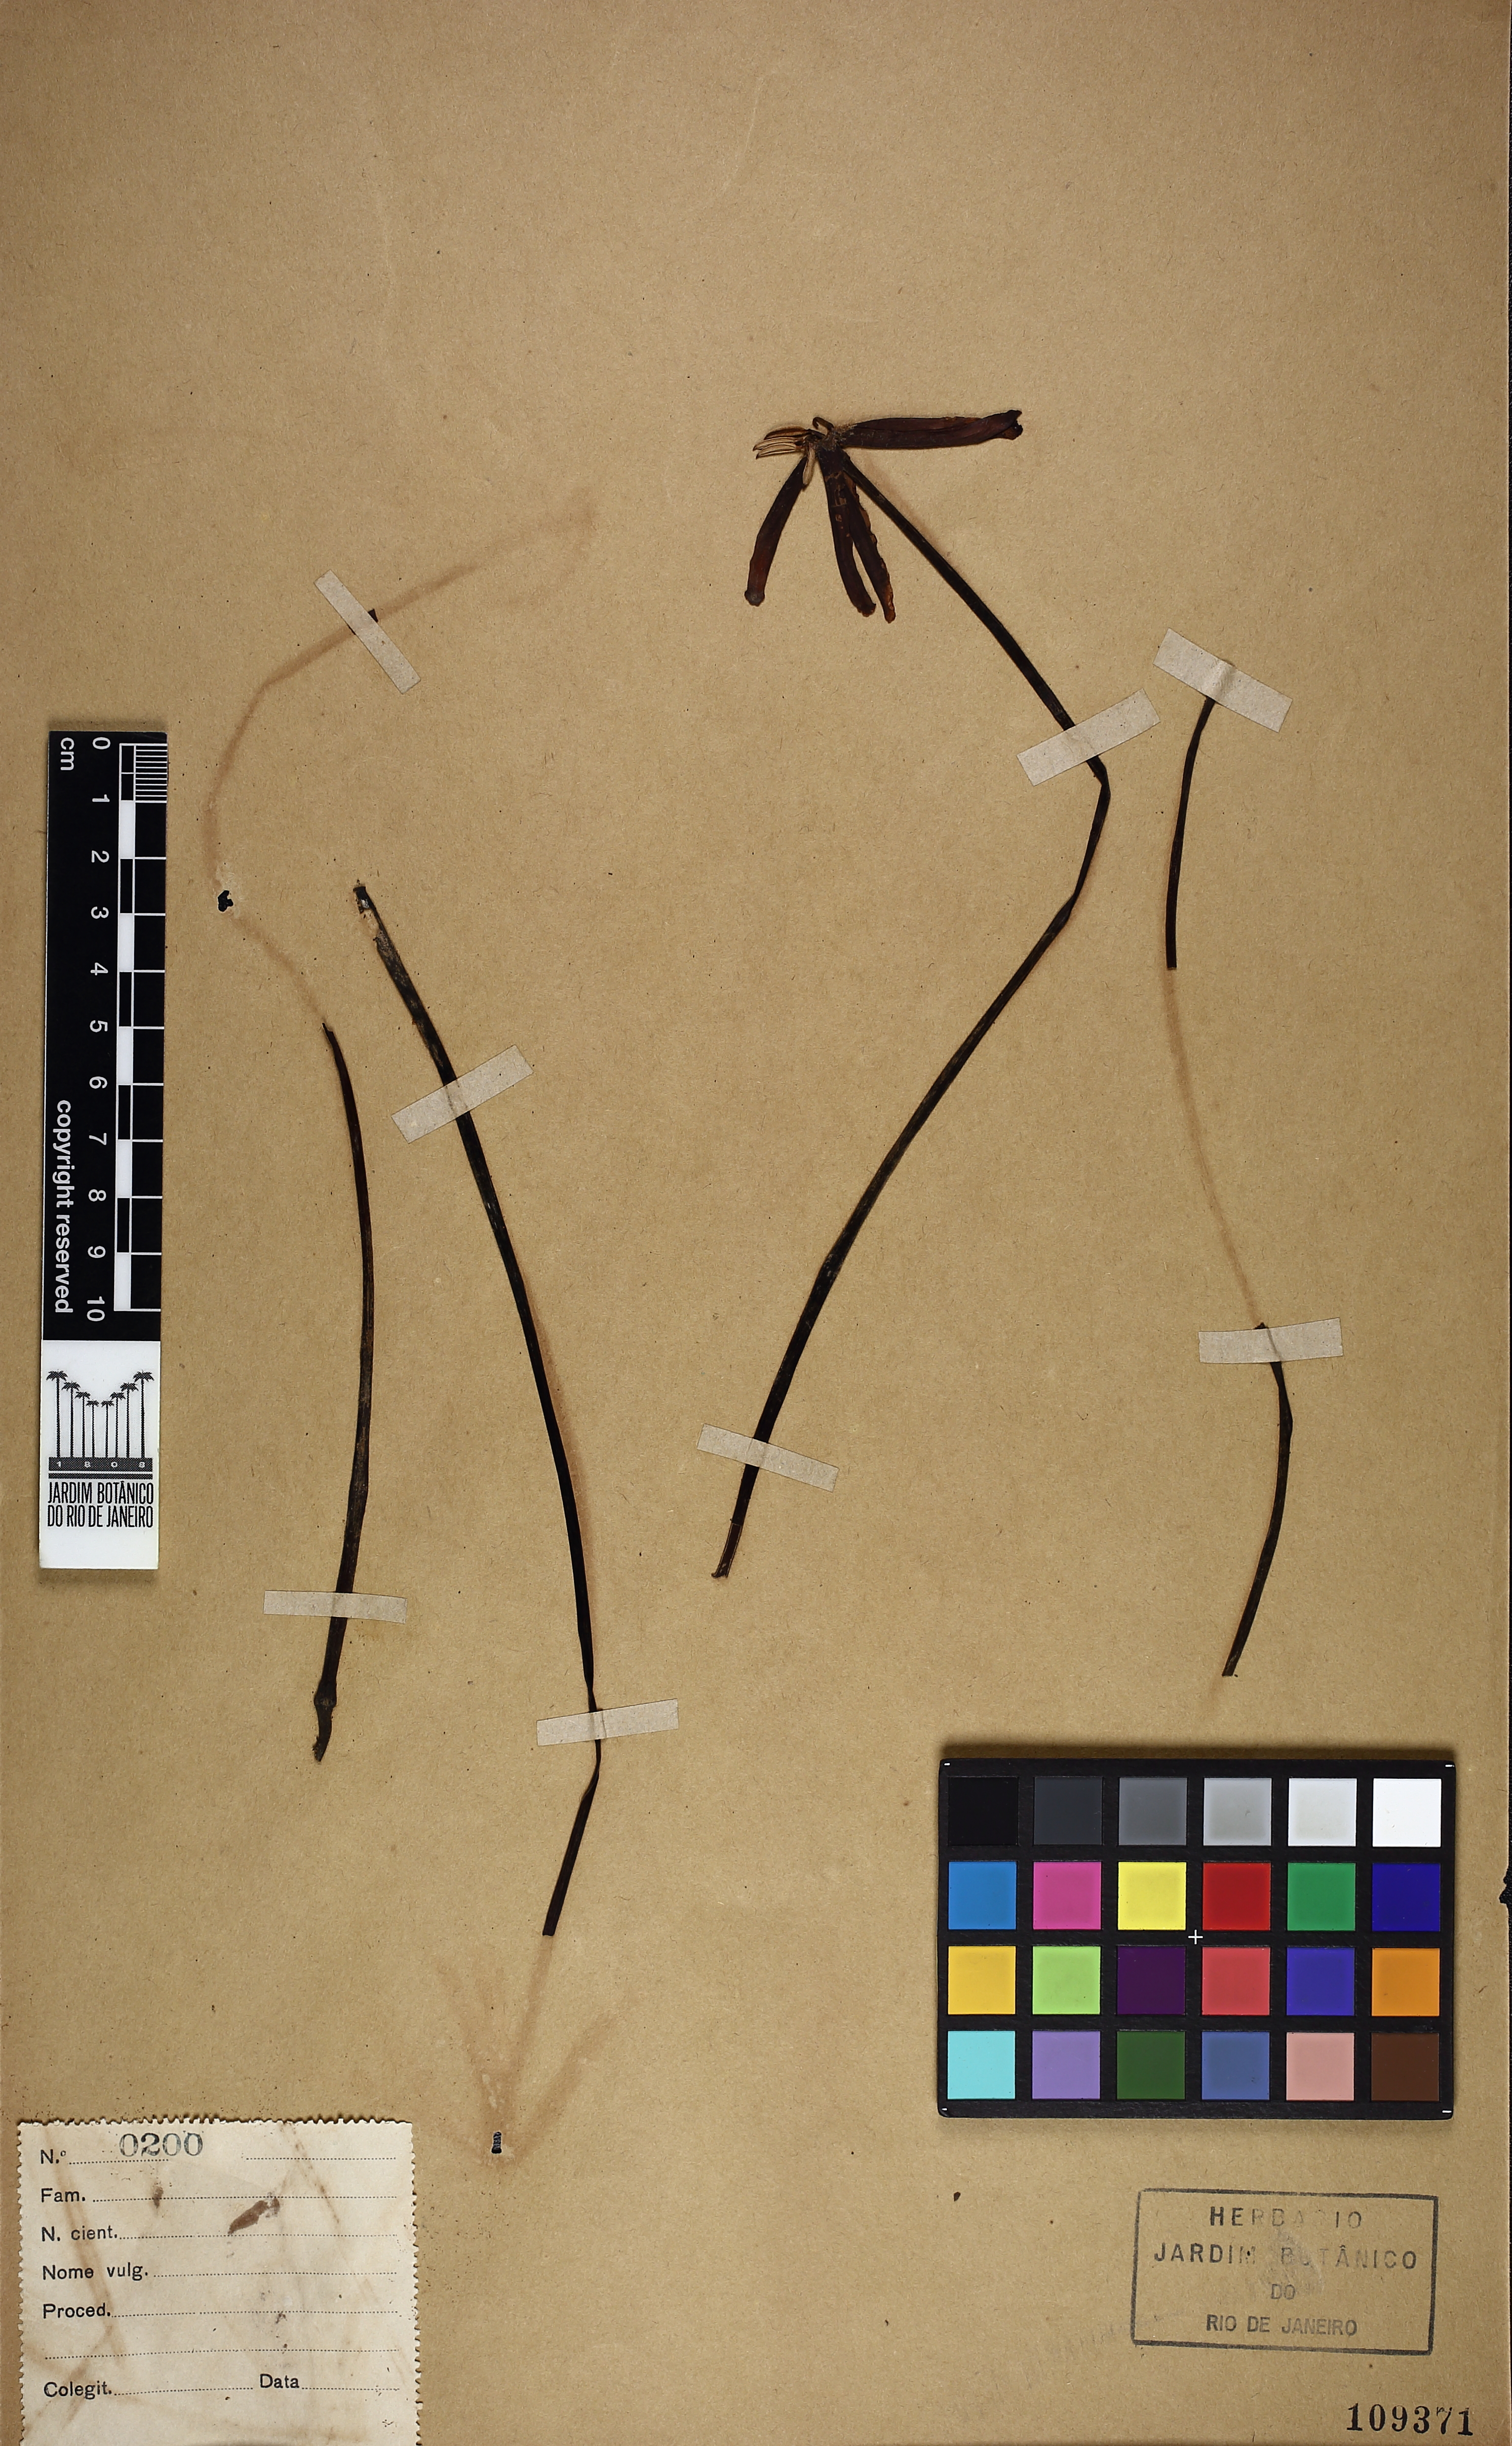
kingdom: Plantae
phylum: Tracheophyta
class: Magnoliopsida
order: Gentianales
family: Rubiaceae
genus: Posoqueria
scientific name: Posoqueria longiflora
